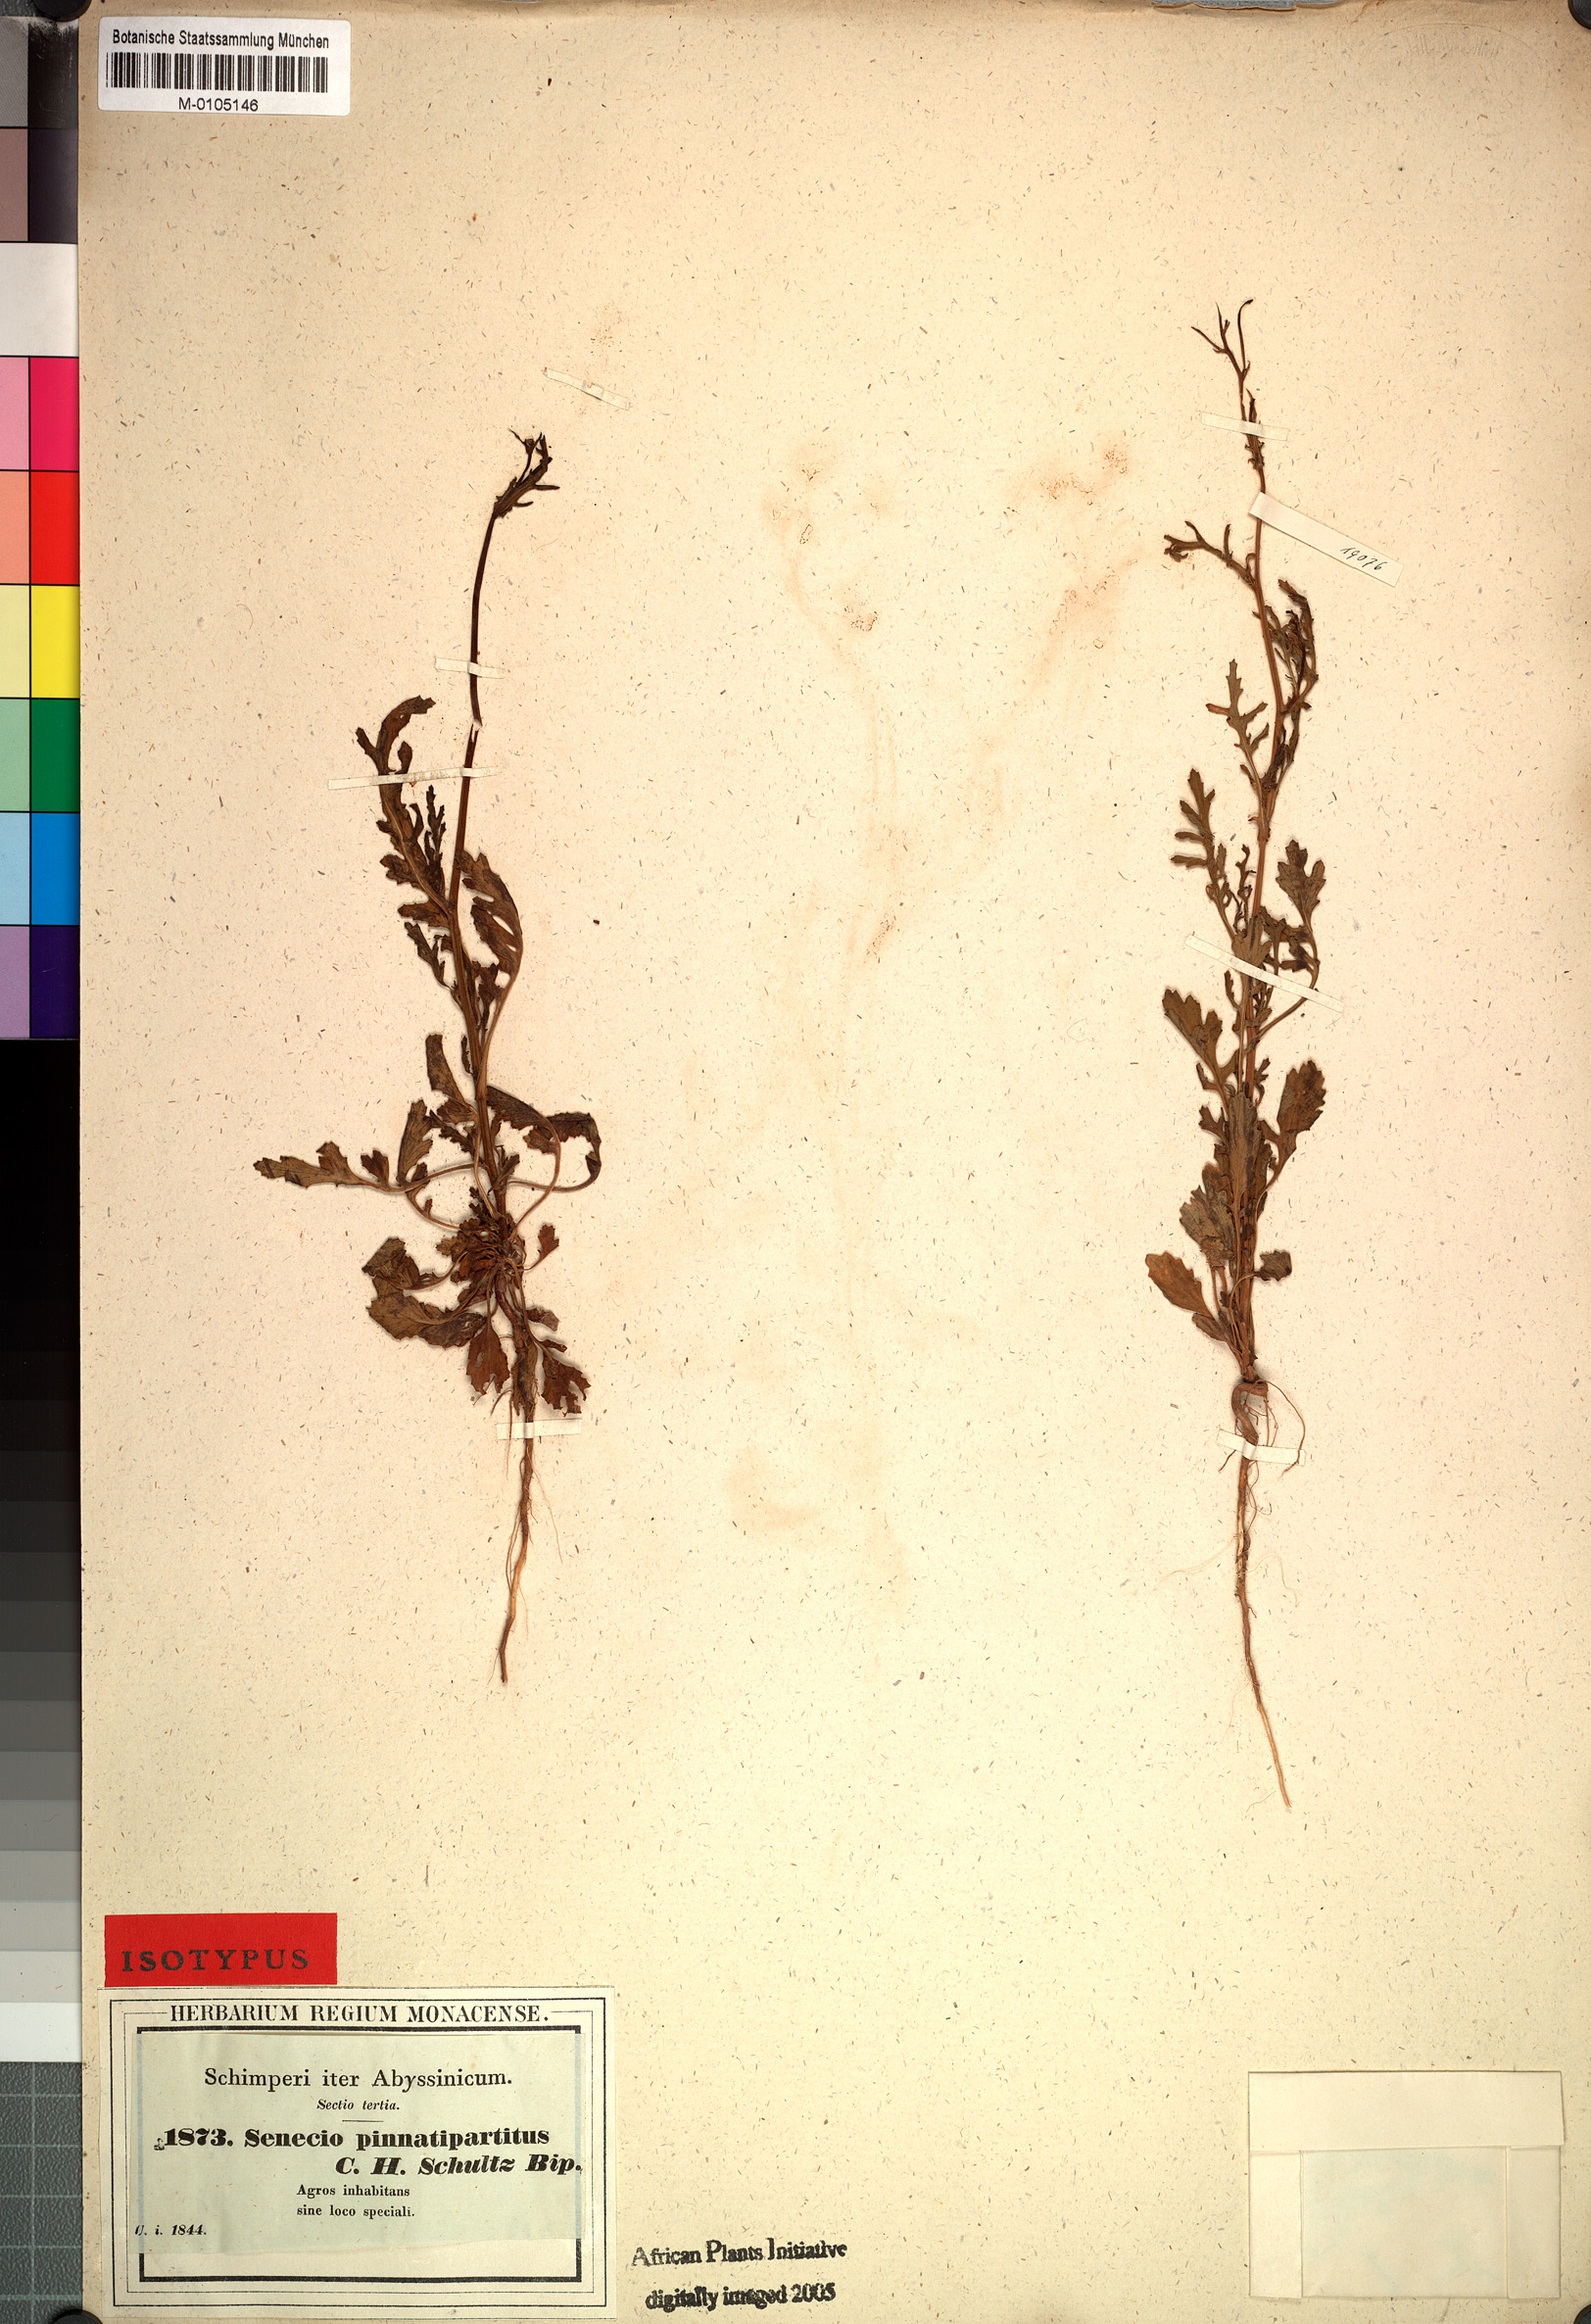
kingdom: Plantae
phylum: Tracheophyta
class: Magnoliopsida
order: Asterales
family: Asteraceae
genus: Senecio
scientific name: Senecio pinnatipartitus
